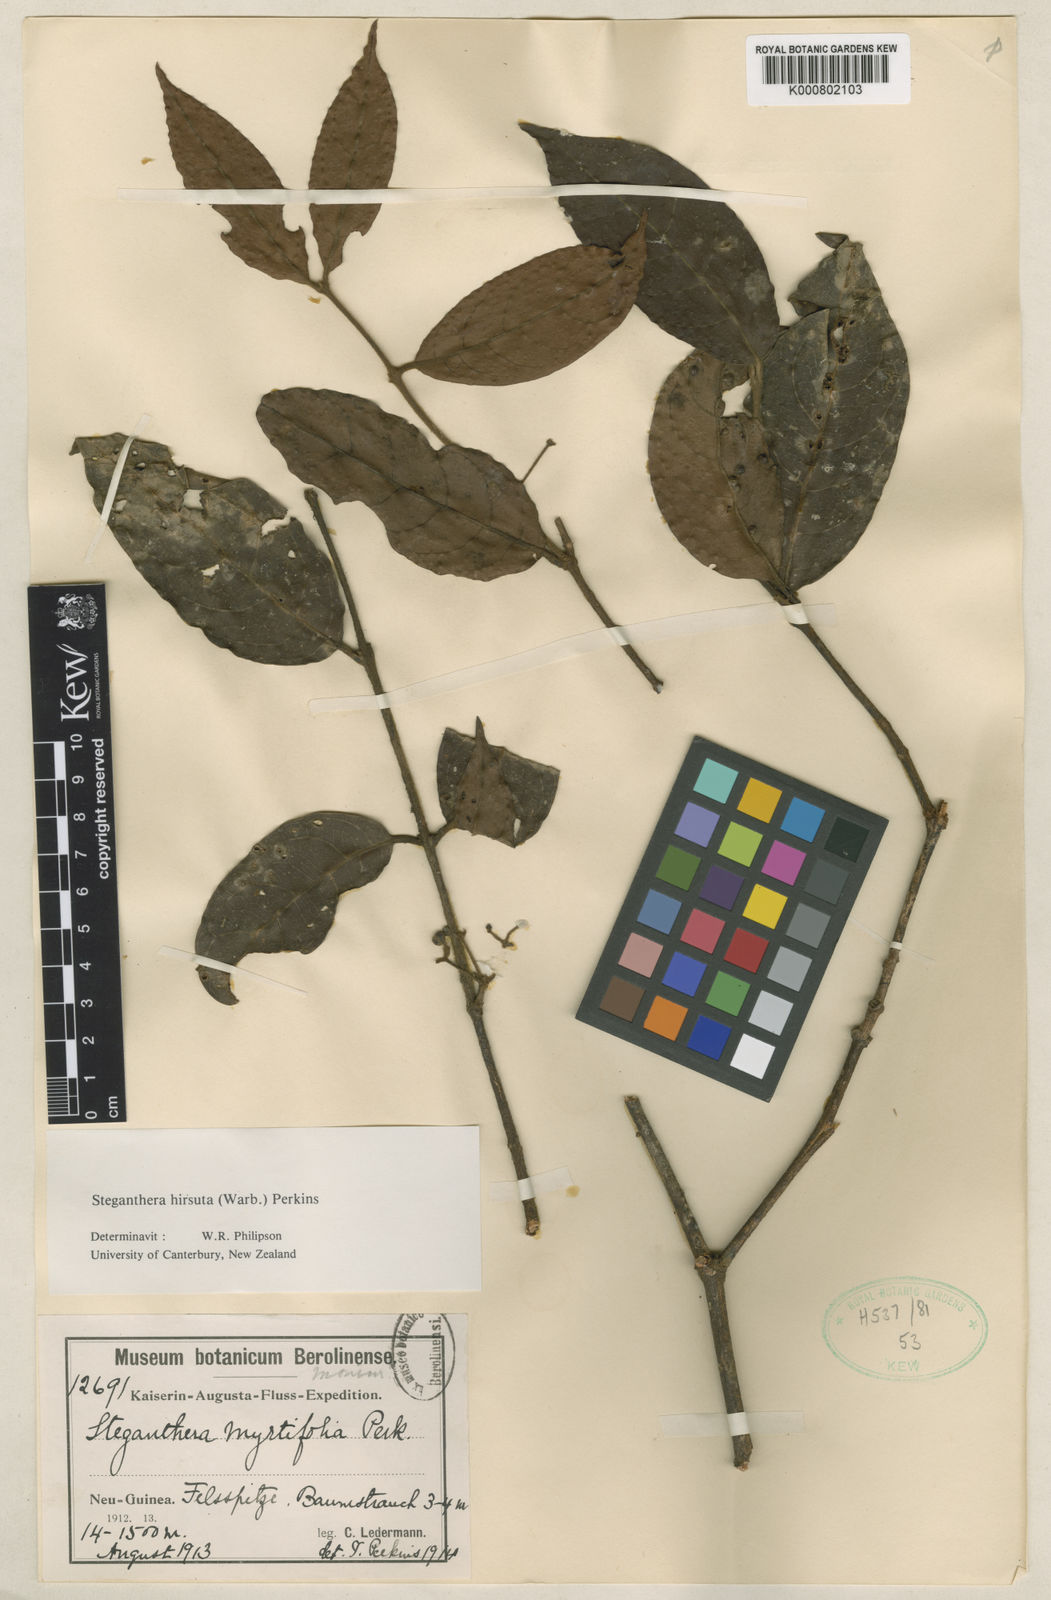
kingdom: Plantae
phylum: Tracheophyta
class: Magnoliopsida
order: Laurales
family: Monimiaceae
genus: Steganthera
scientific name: Steganthera myrtifolia
